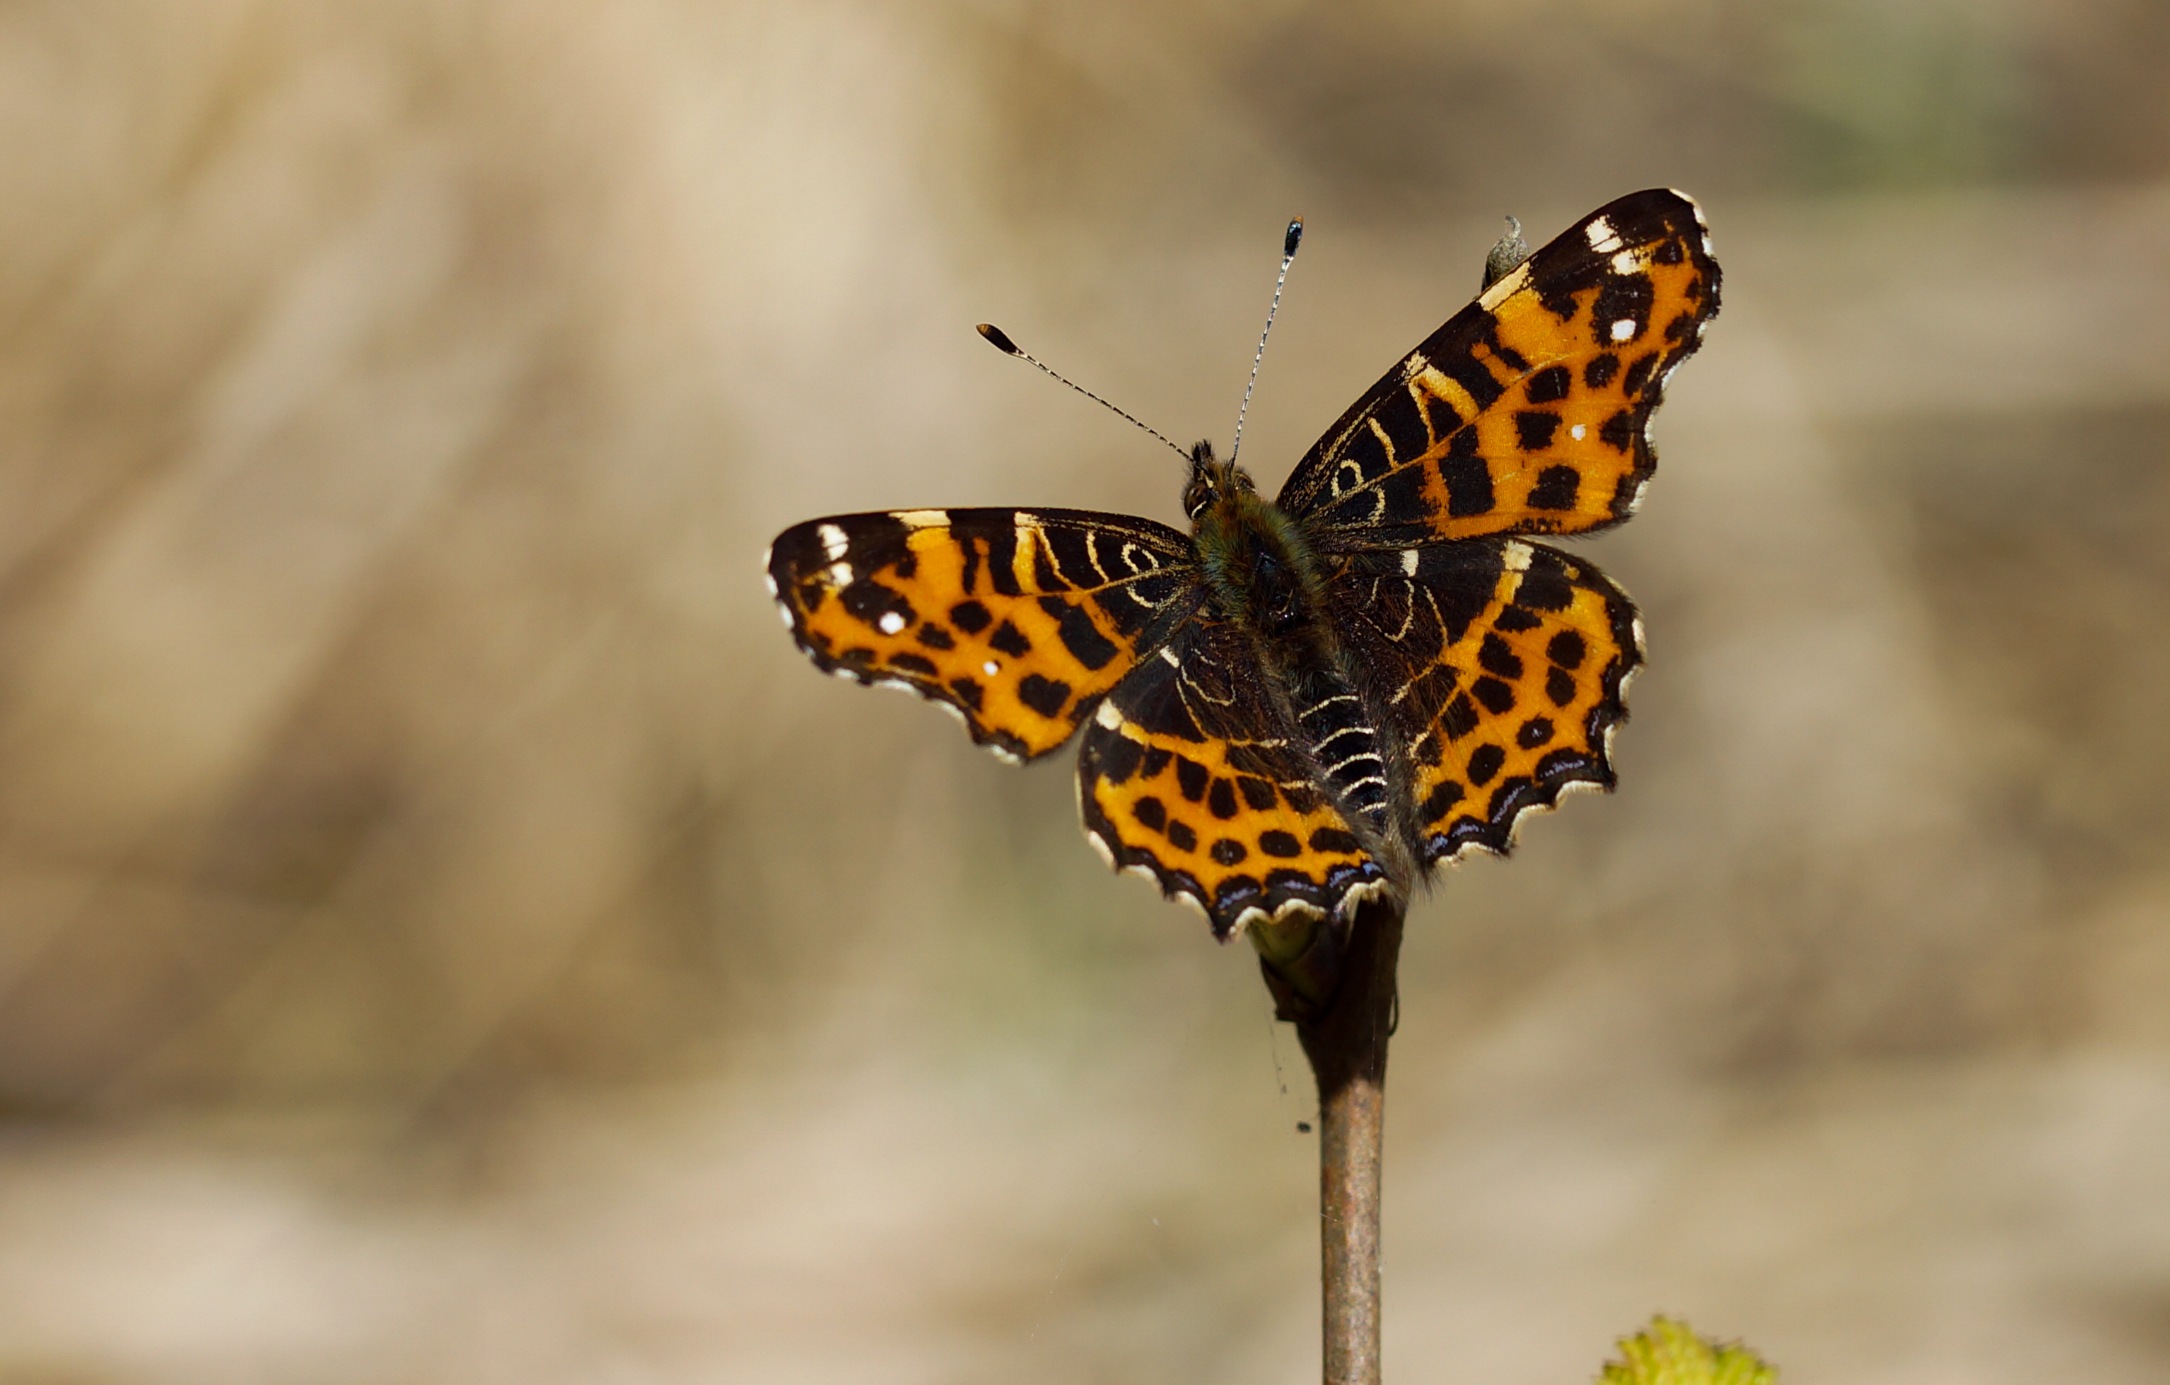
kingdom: Animalia
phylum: Arthropoda
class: Insecta
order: Lepidoptera
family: Nymphalidae
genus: Araschnia
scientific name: Araschnia levana
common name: Nældesommerfugl
